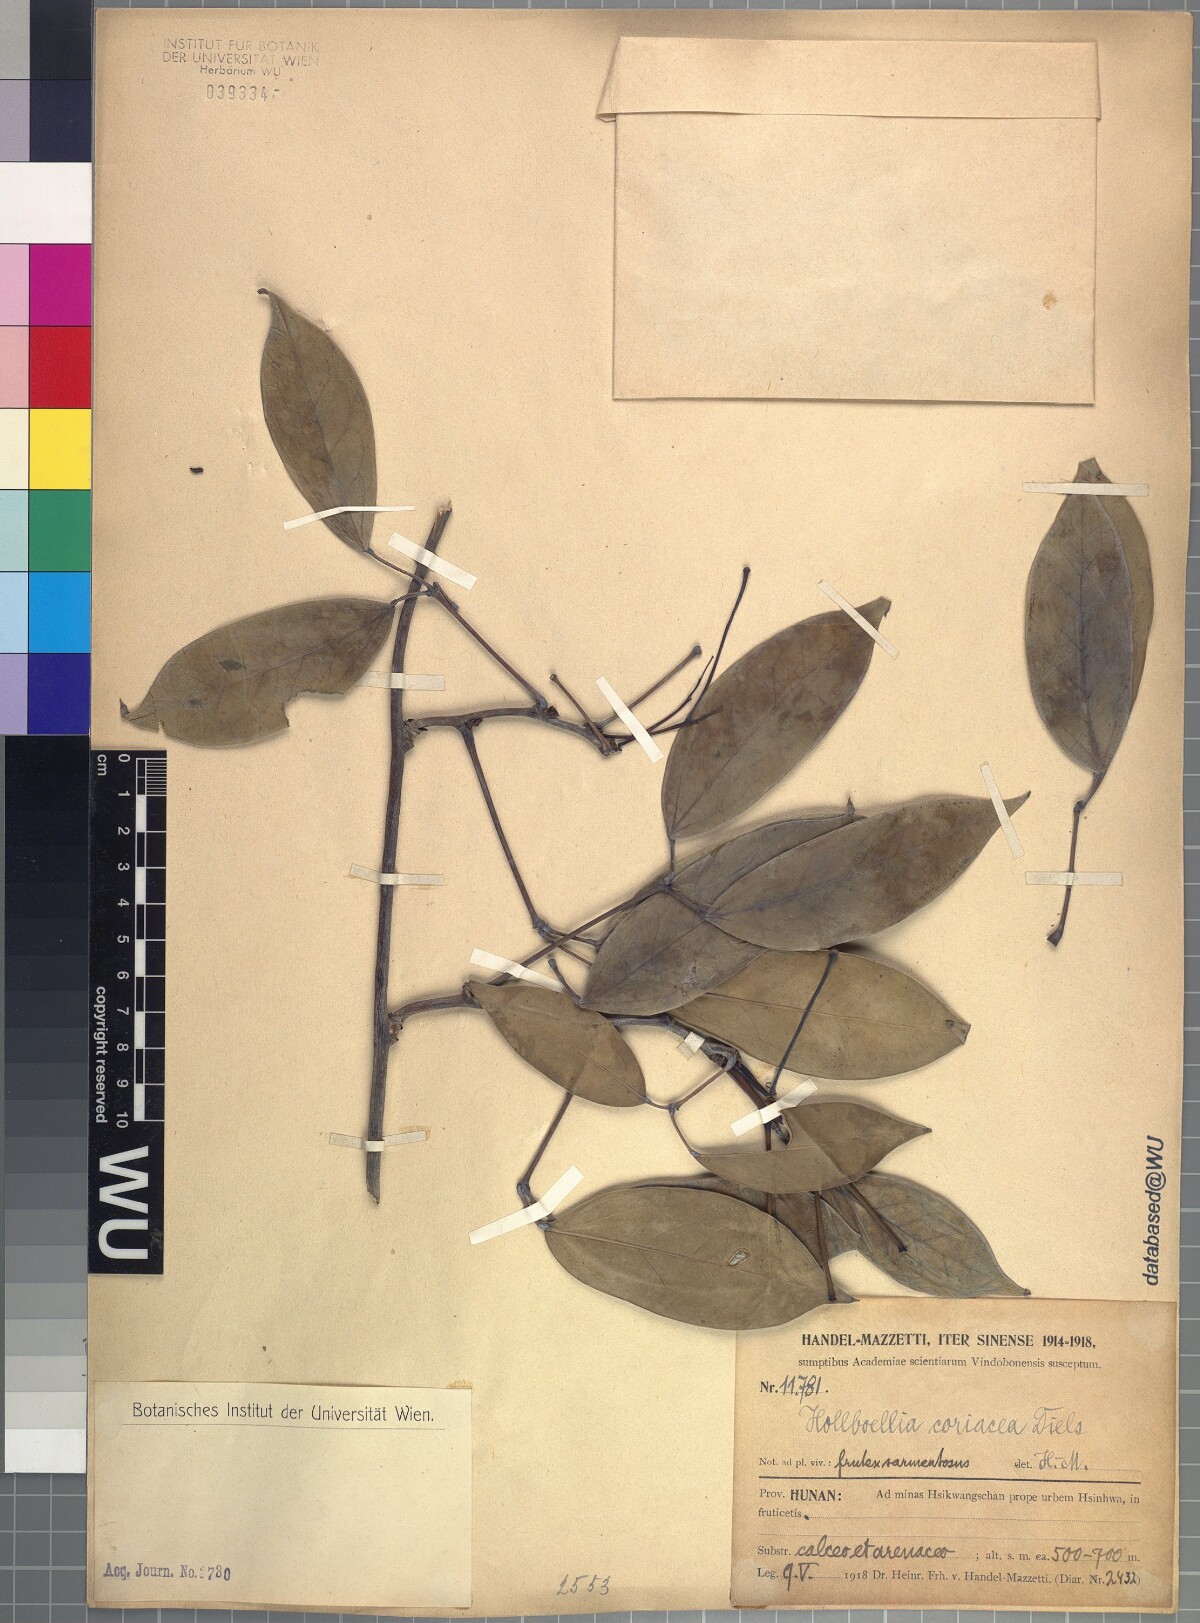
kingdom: Plantae
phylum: Tracheophyta
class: Magnoliopsida
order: Ranunculales
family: Lardizabalaceae
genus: Stauntonia
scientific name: Stauntonia coriacea
